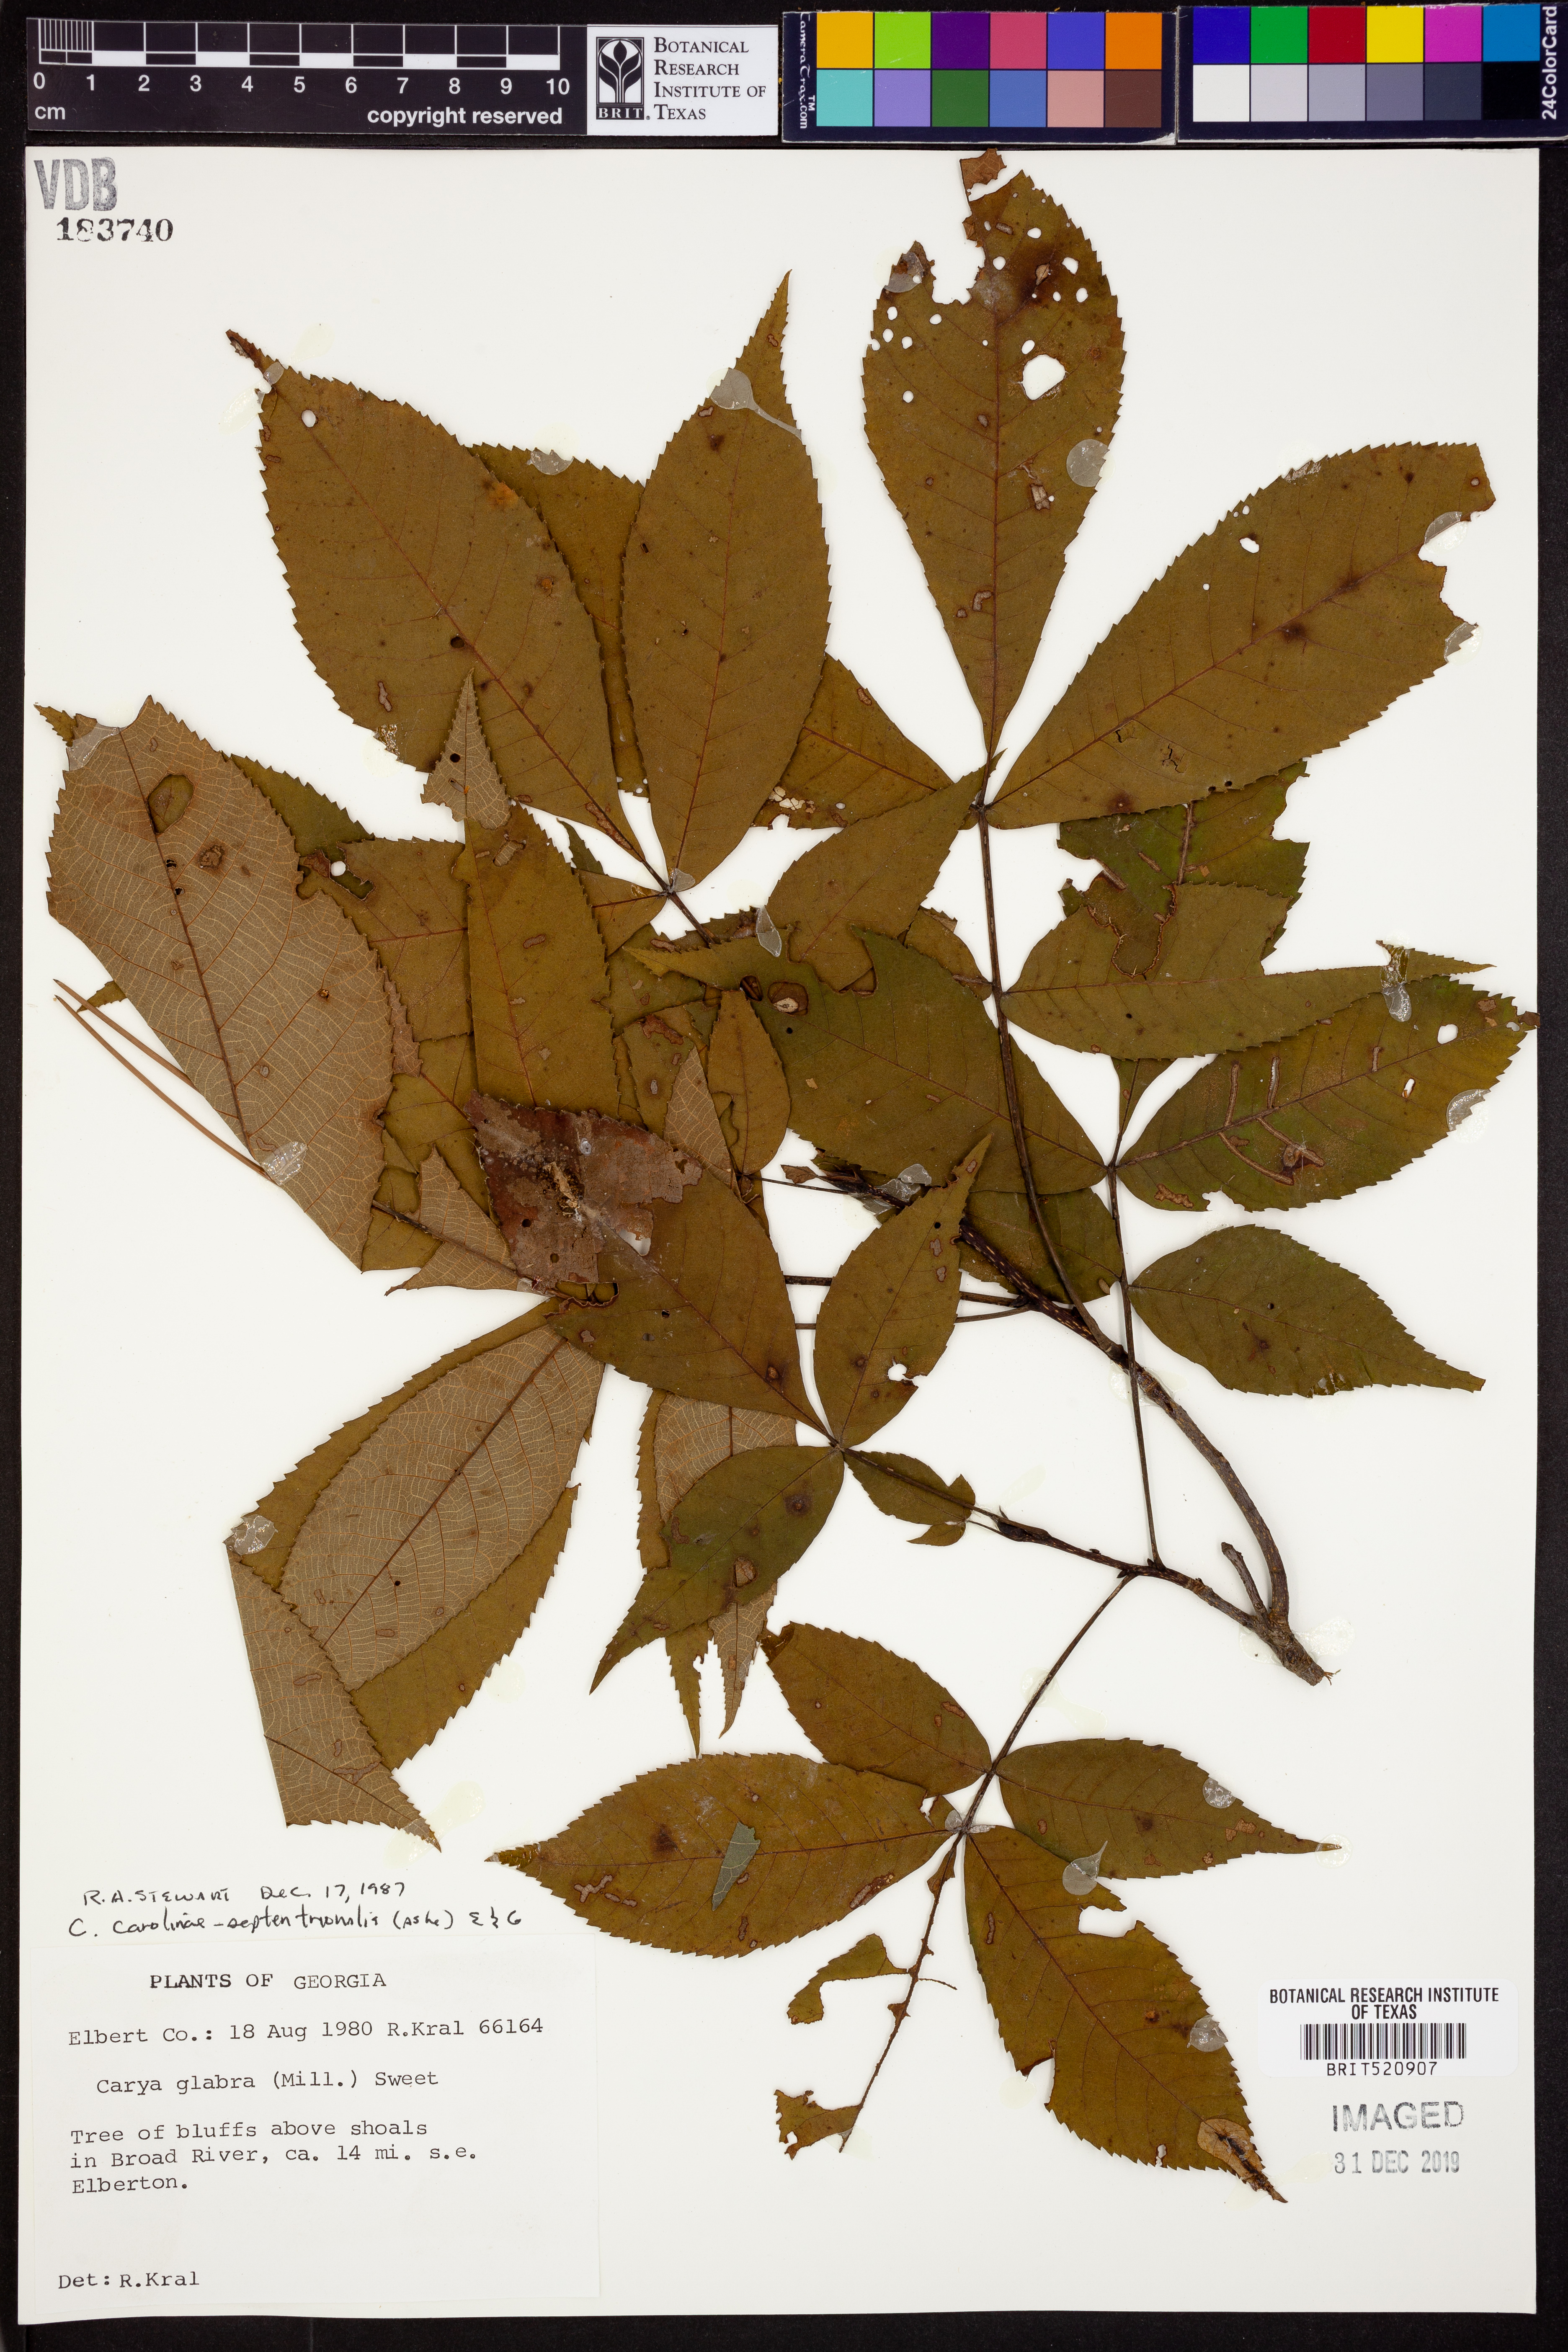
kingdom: Plantae
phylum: Tracheophyta
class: Magnoliopsida
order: Fagales
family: Juglandaceae
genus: Carya
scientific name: Carya carolinae-septentrionalis
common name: Carolina hickory
